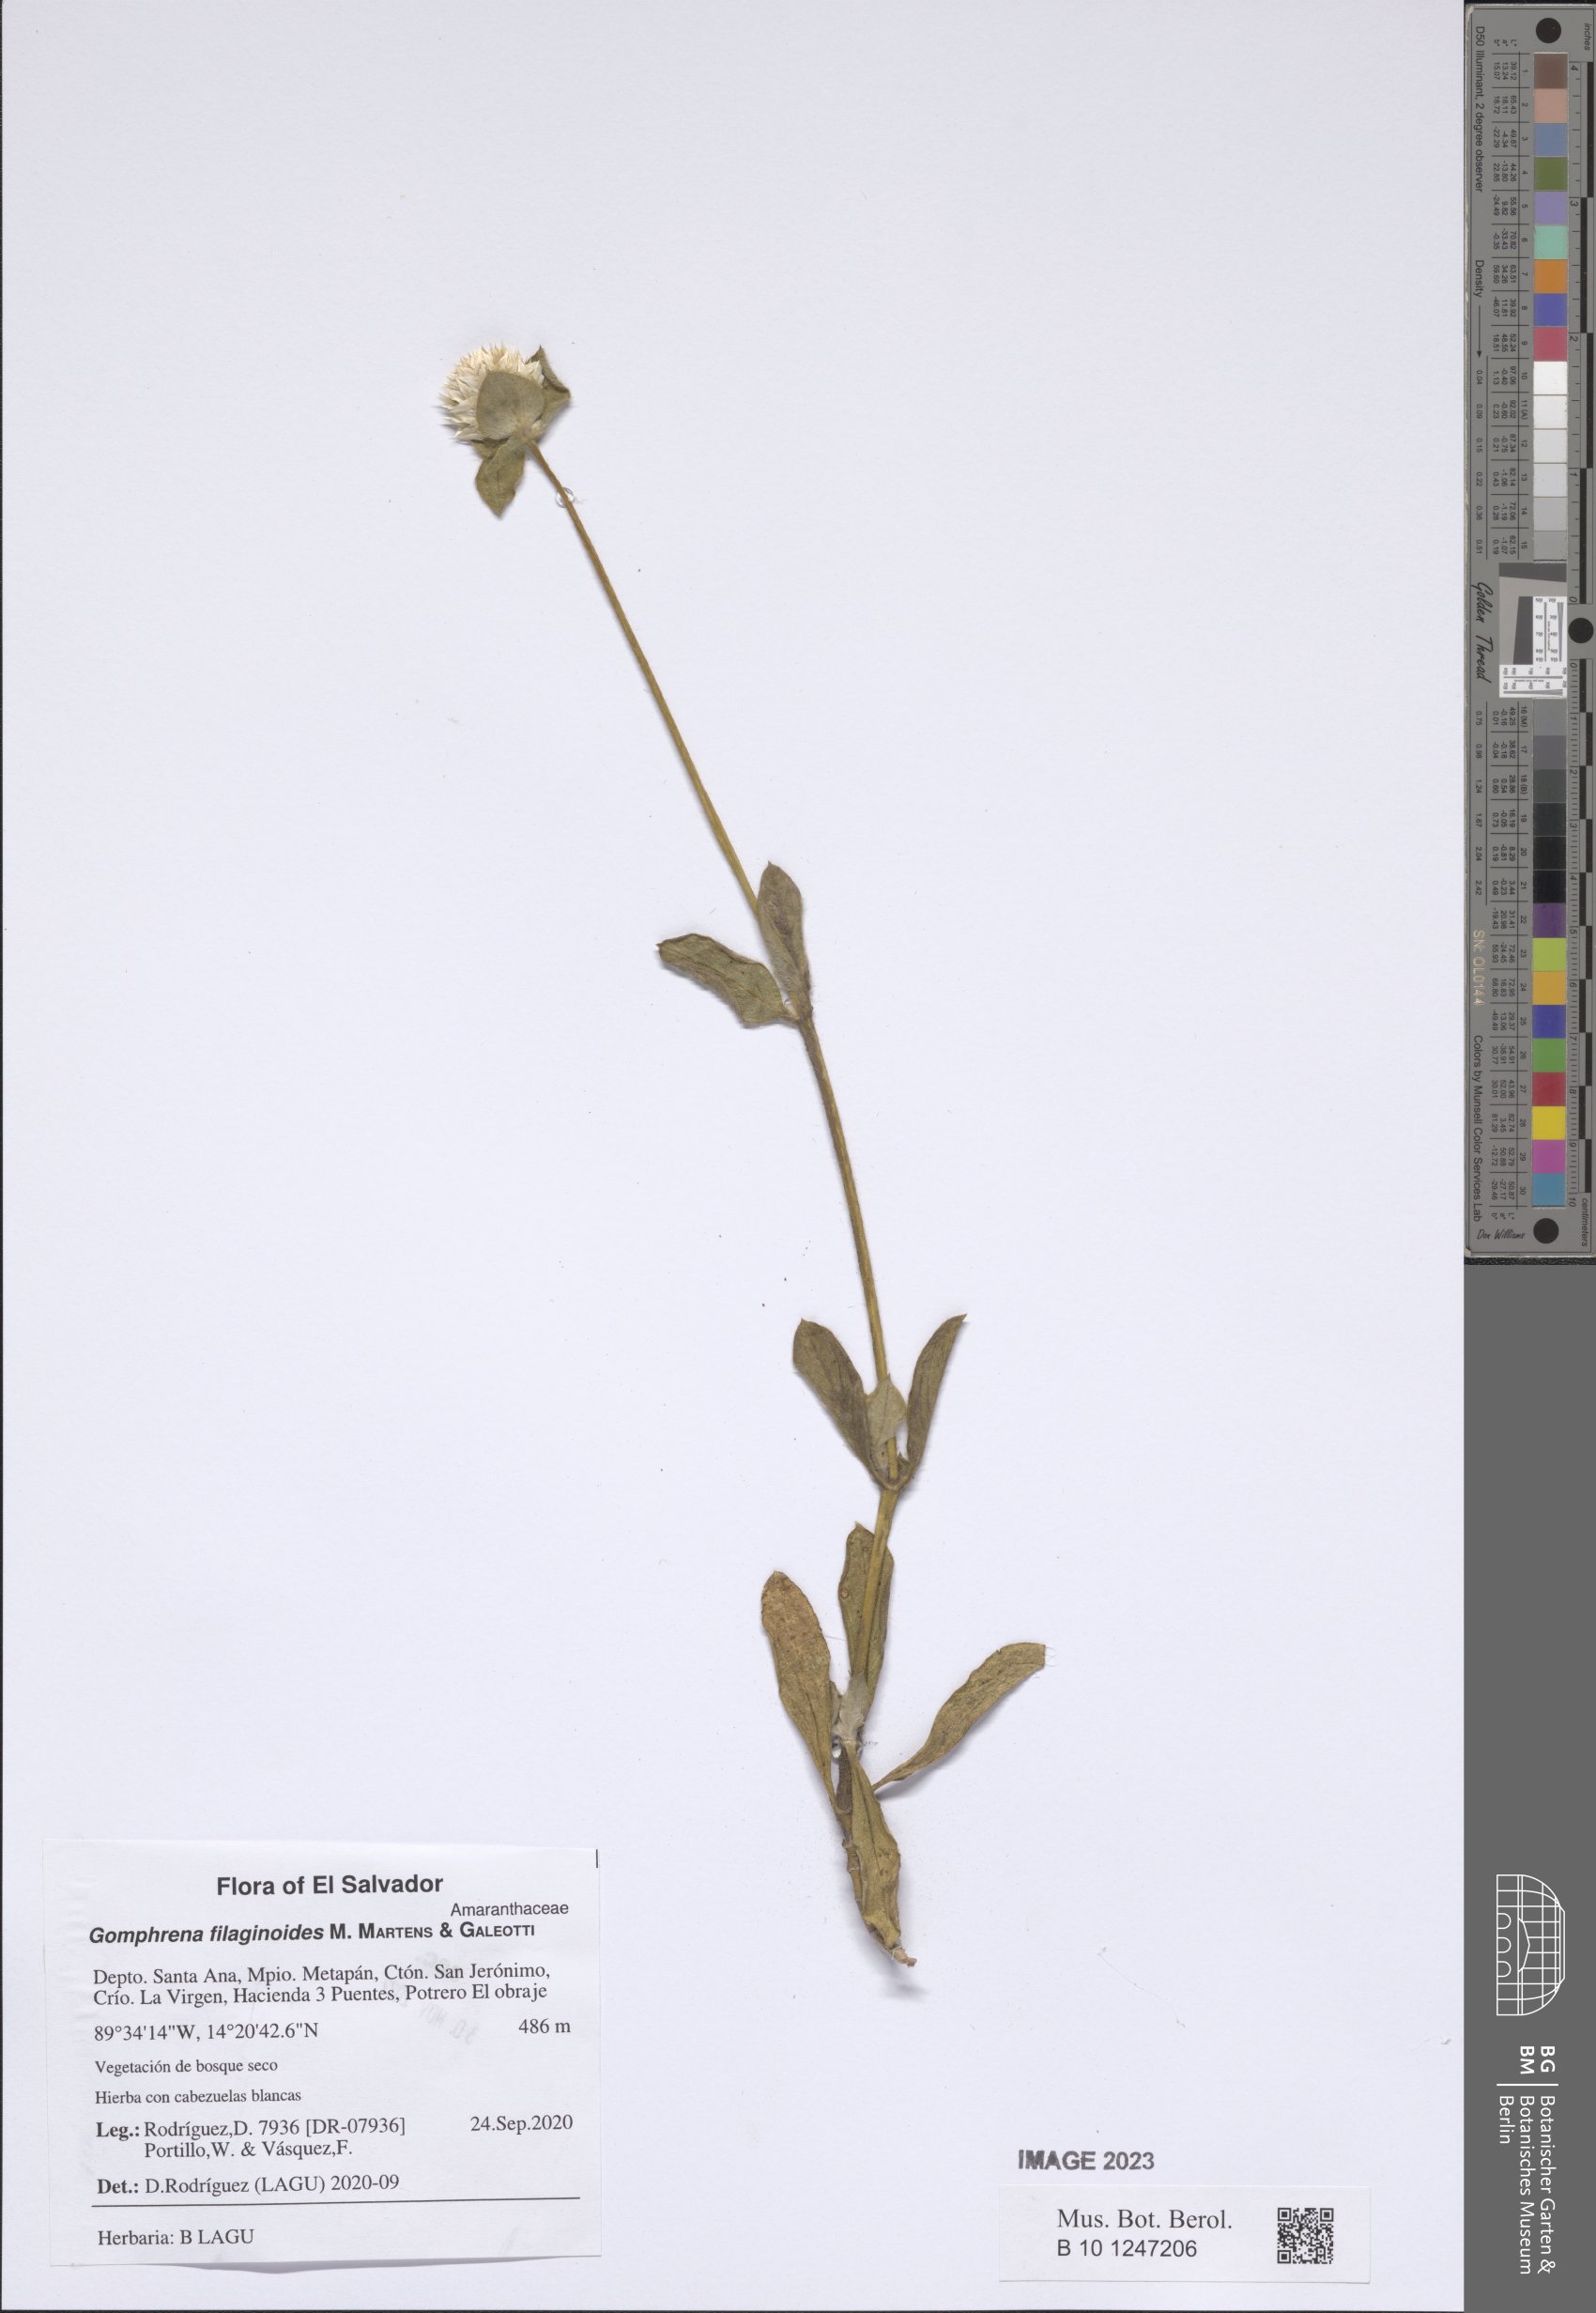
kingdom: Plantae
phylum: Tracheophyta
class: Magnoliopsida
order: Caryophyllales
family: Amaranthaceae
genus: Gomphrena
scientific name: Gomphrena filaginoides
